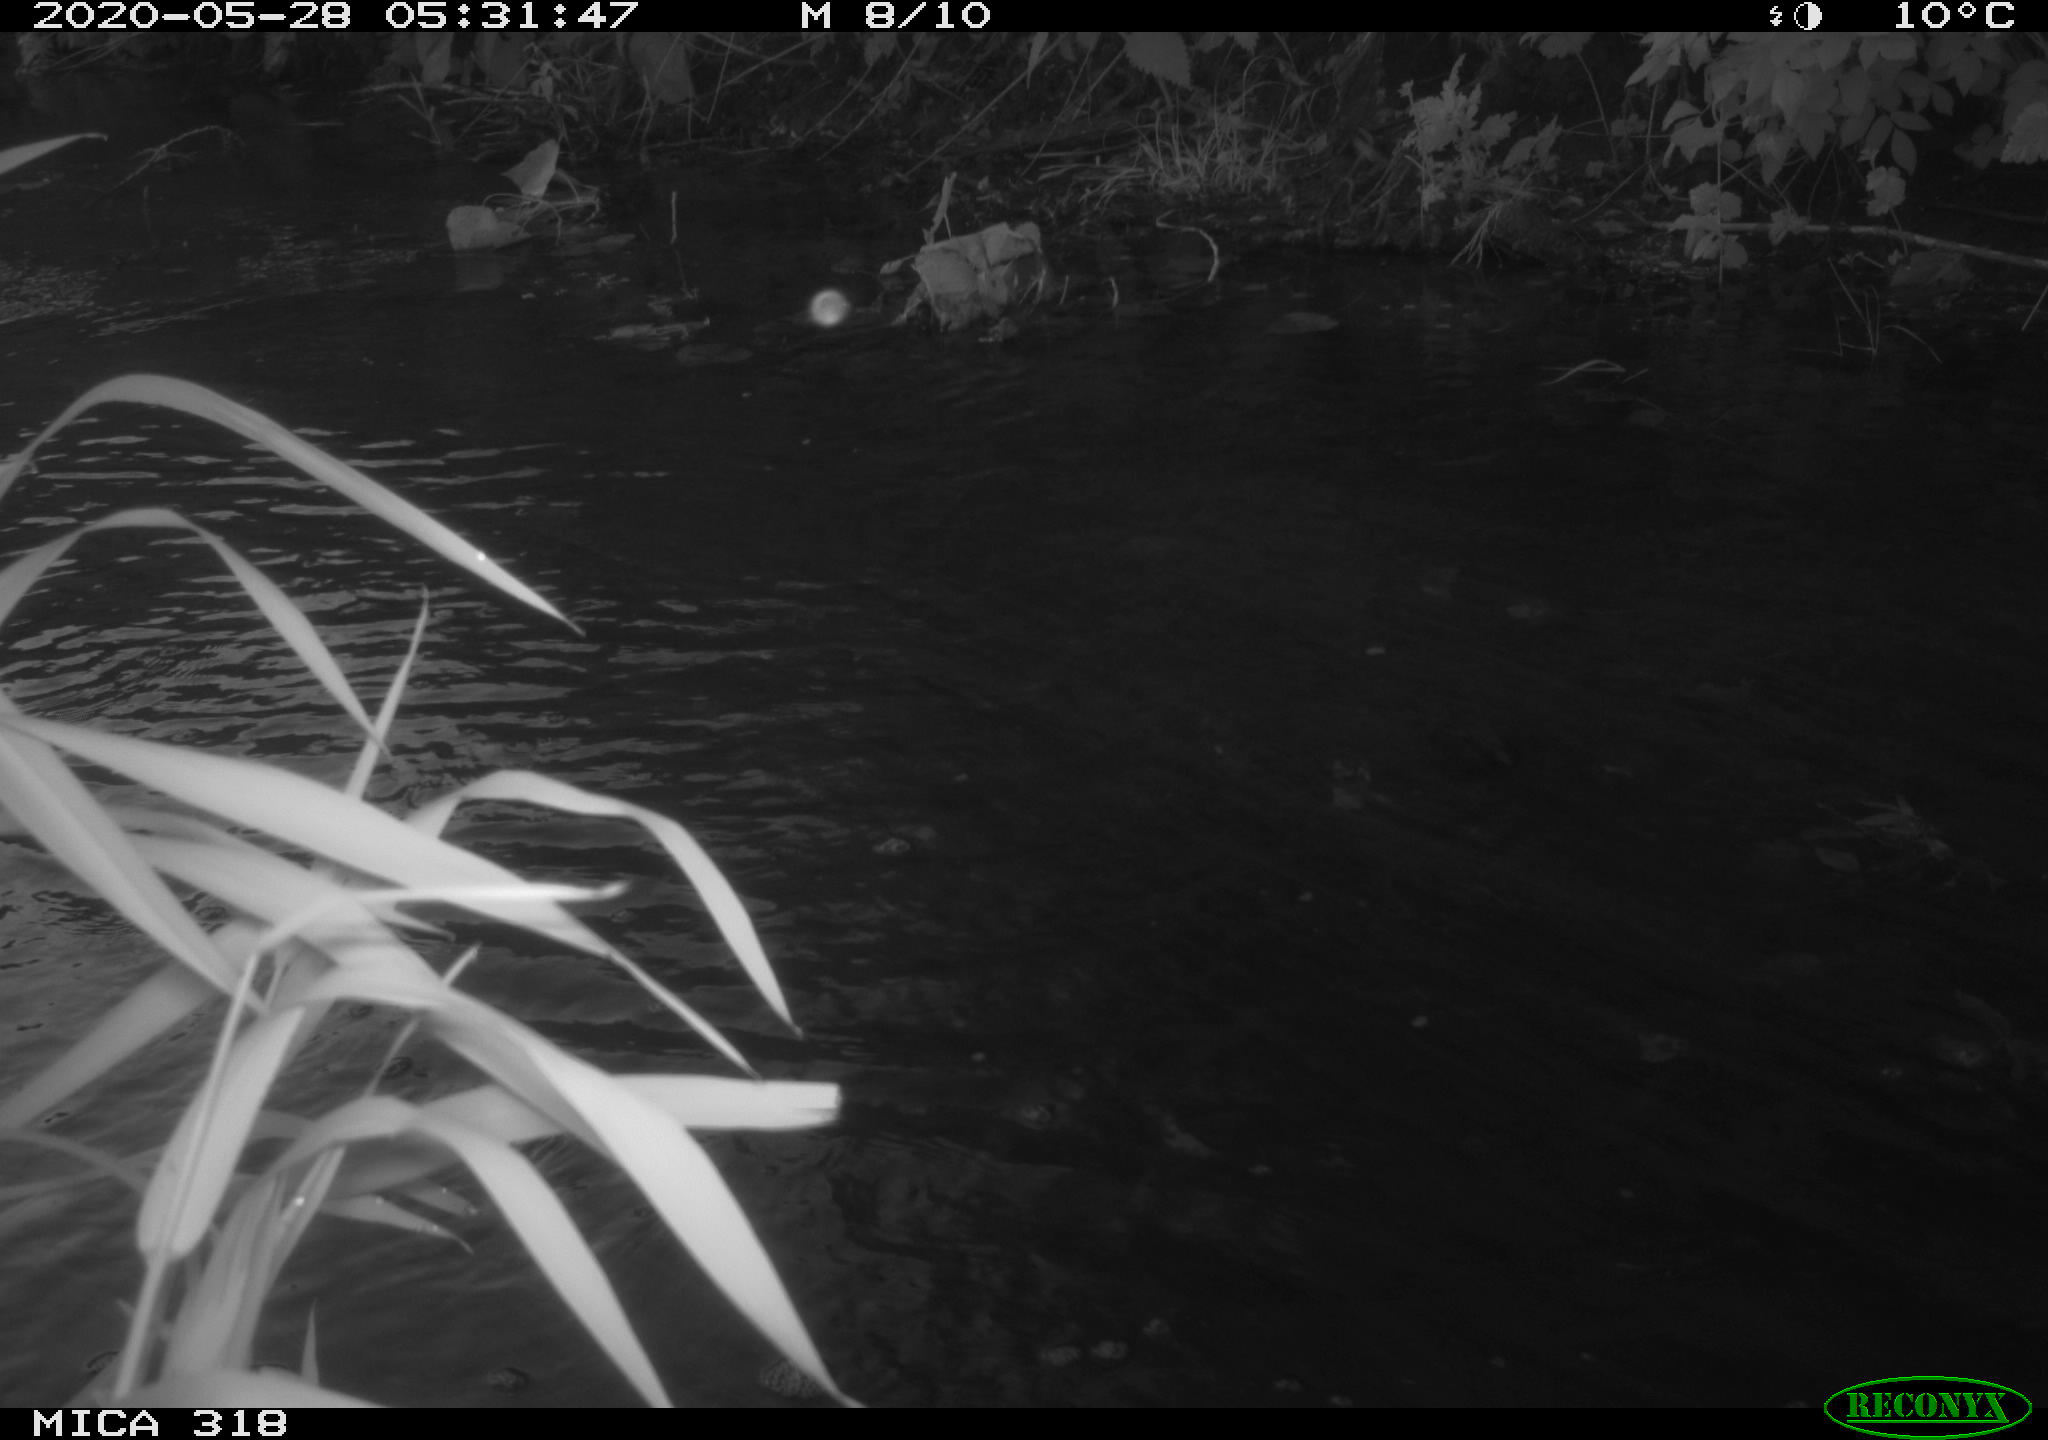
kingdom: Animalia
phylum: Chordata
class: Aves
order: Gruiformes
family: Rallidae
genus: Gallinula
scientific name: Gallinula chloropus
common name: Common moorhen
